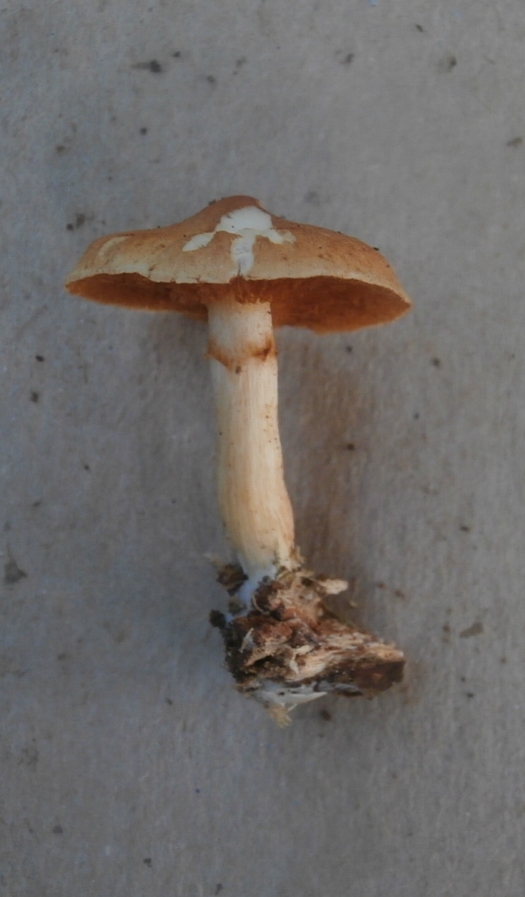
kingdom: Fungi
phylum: Basidiomycota
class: Agaricomycetes
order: Agaricales
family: Hymenogastraceae
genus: Gymnopilus
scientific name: Gymnopilus penetrans
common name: plettet flammehat
